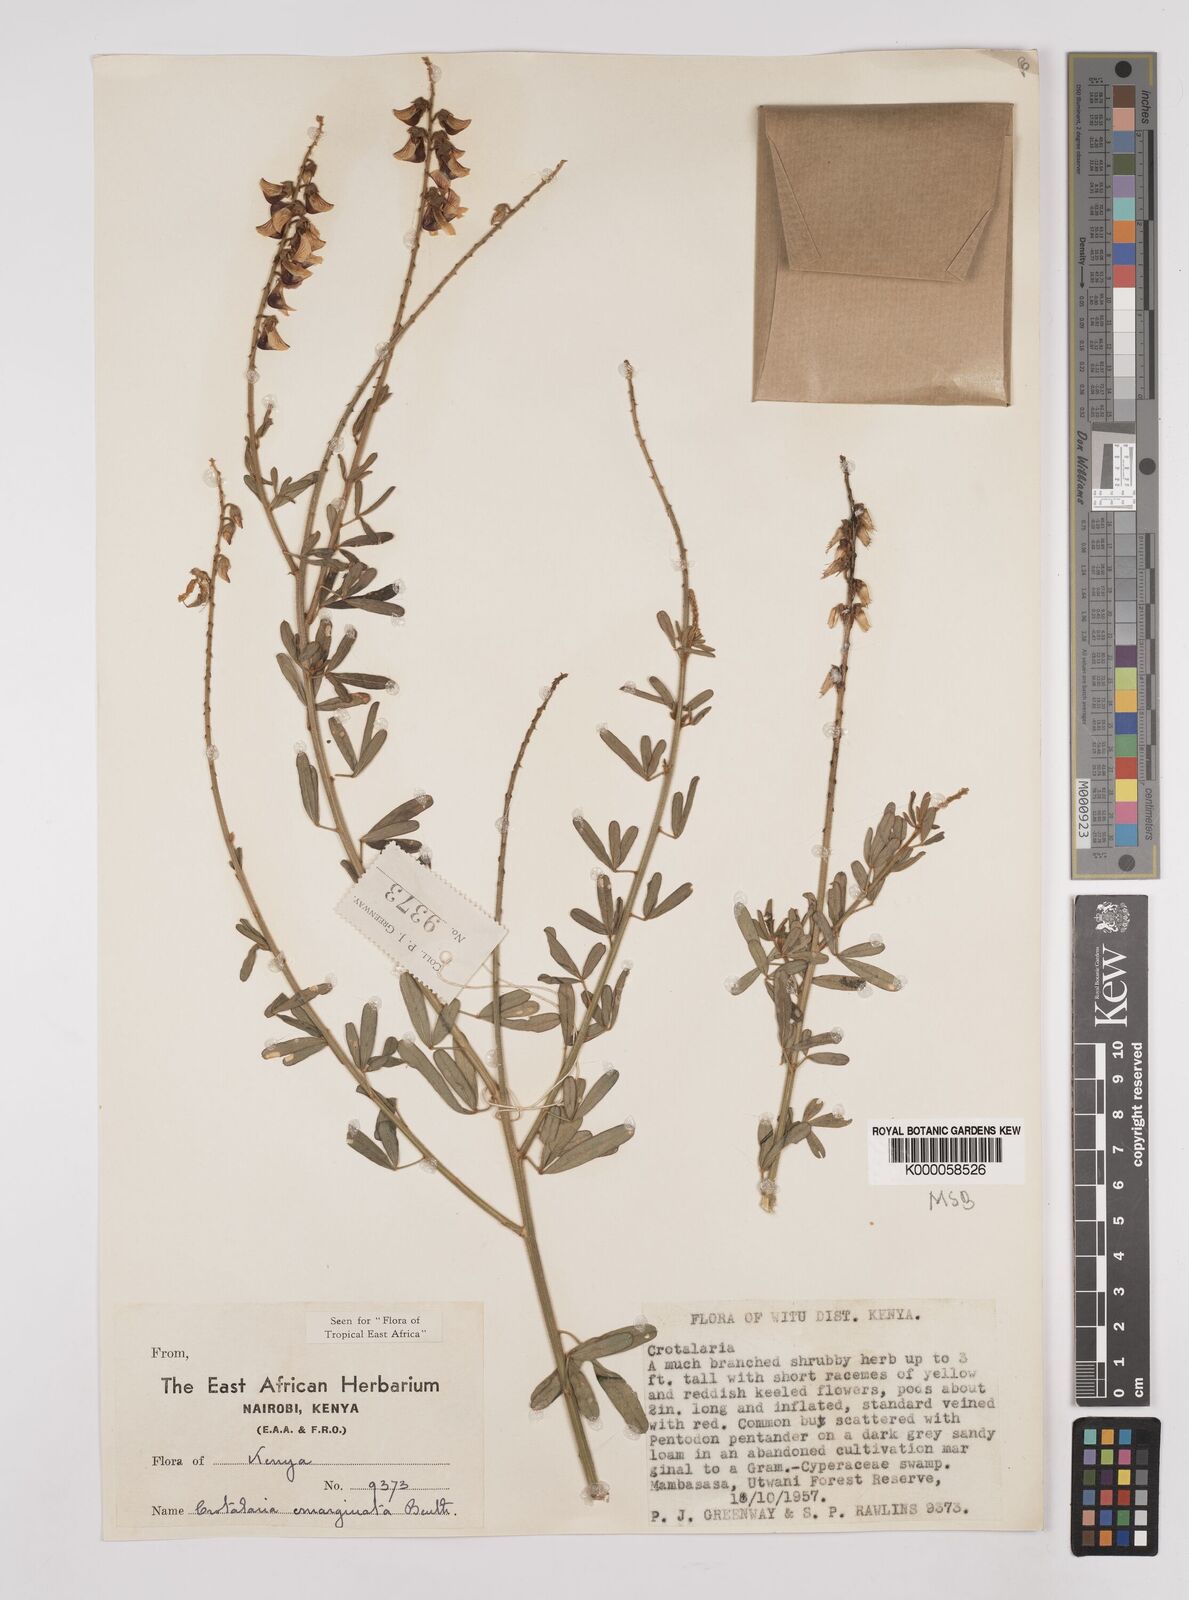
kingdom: Plantae
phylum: Tracheophyta
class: Magnoliopsida
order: Fabales
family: Fabaceae
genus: Crotalaria
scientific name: Crotalaria emarginata
